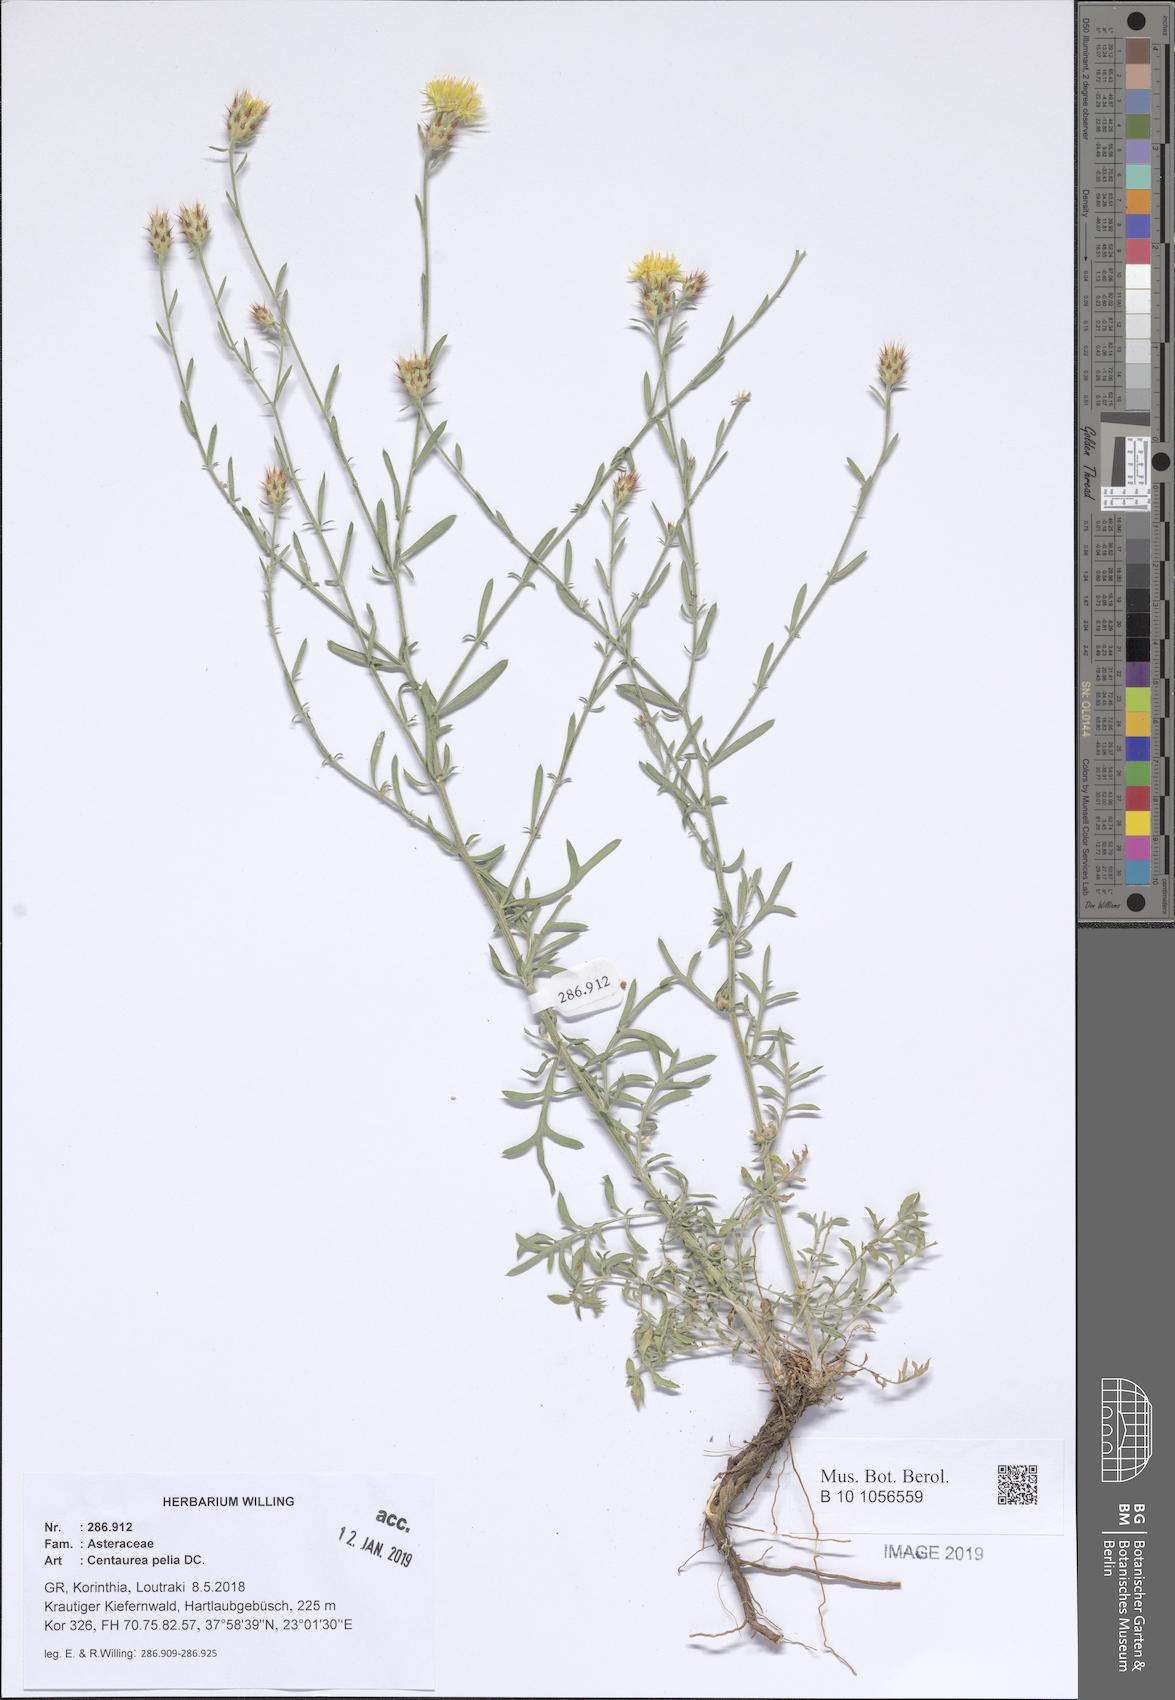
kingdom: Plantae
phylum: Tracheophyta
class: Magnoliopsida
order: Asterales
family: Asteraceae
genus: Centaurea
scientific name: Centaurea pelia
